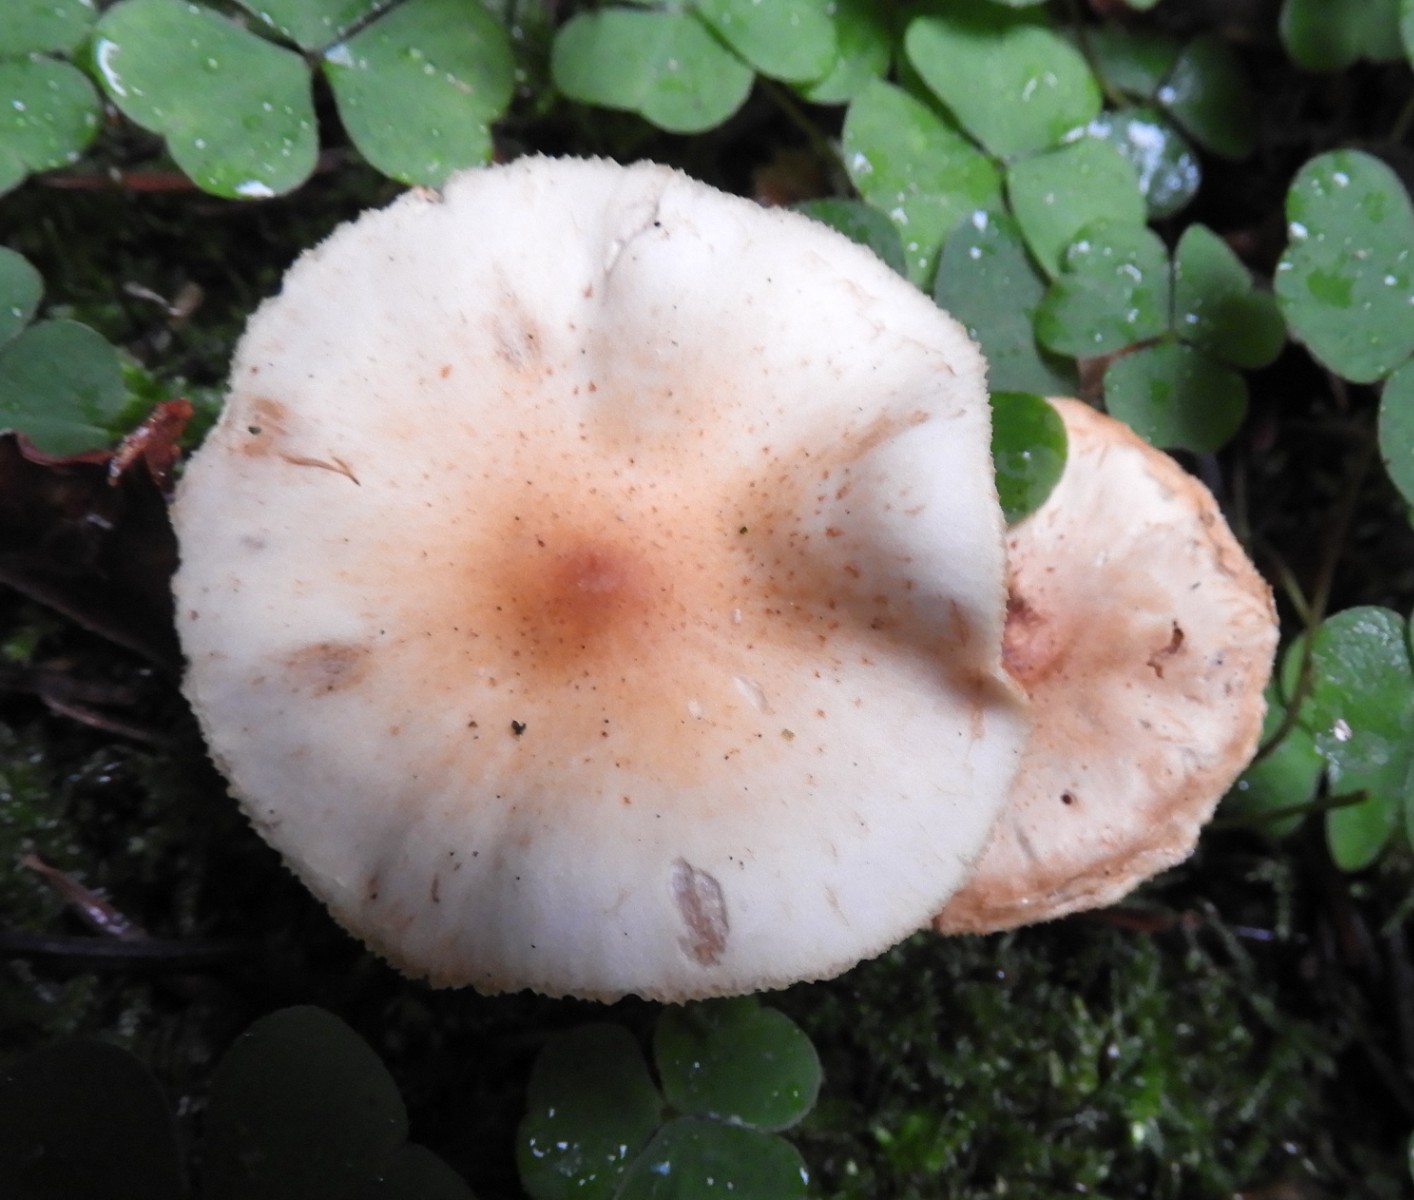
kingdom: Fungi
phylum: Basidiomycota
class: Agaricomycetes
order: Agaricales
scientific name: Agaricales
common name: champignonordenen
